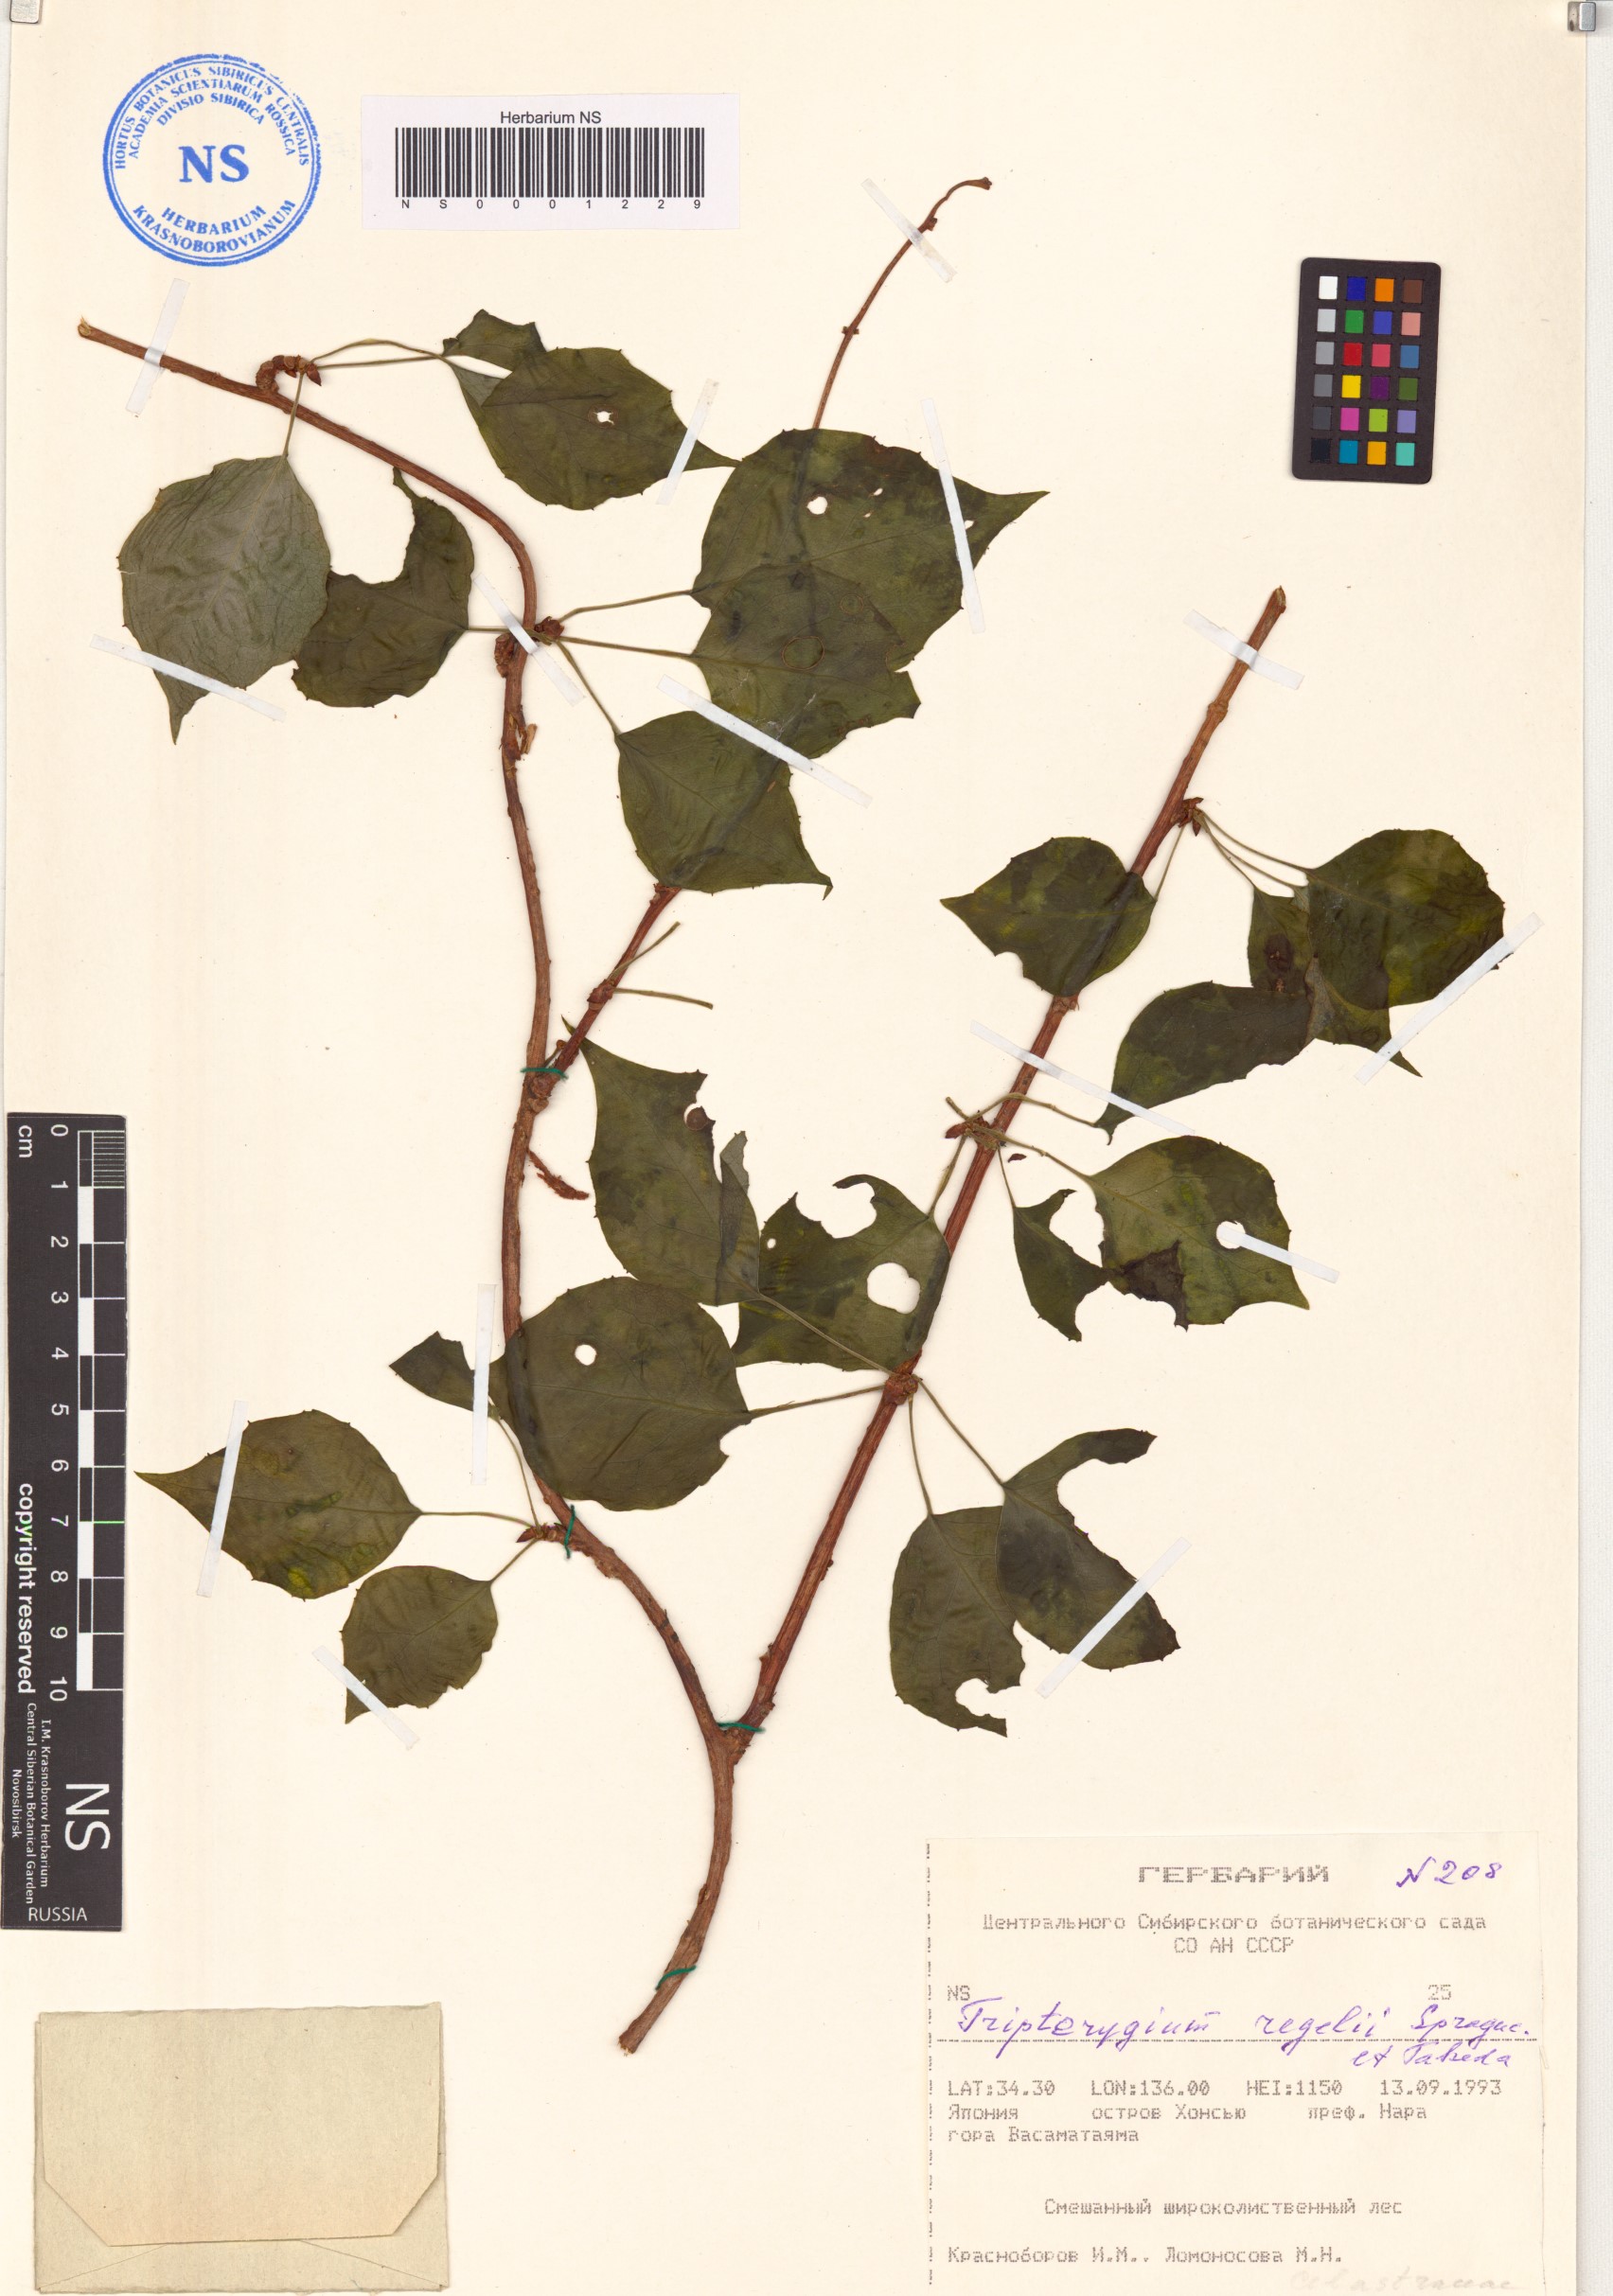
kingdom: Plantae
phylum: Tracheophyta
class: Magnoliopsida
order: Celastrales
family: Celastraceae
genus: Tripterygium
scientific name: Tripterygium wilfordii
